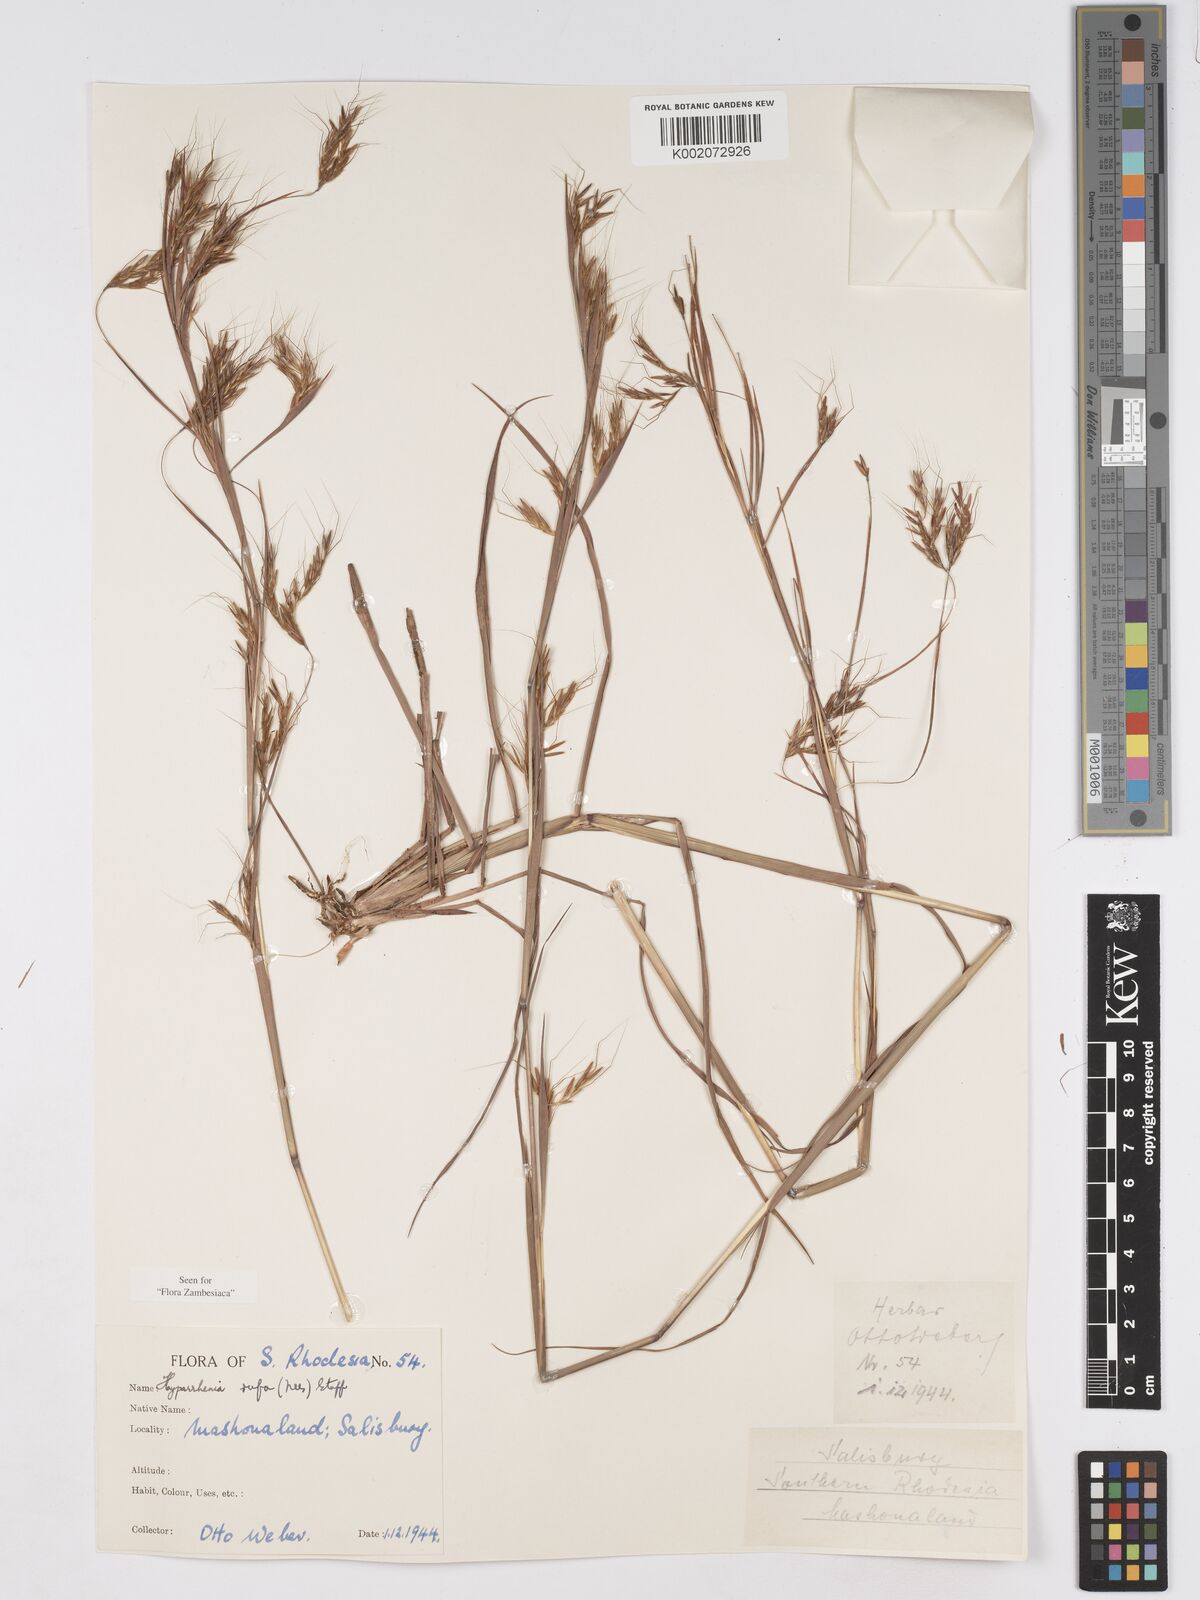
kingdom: Plantae
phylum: Tracheophyta
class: Liliopsida
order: Poales
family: Poaceae
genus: Hyparrhenia
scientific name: Hyparrhenia rufa
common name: Jaraguagrass
